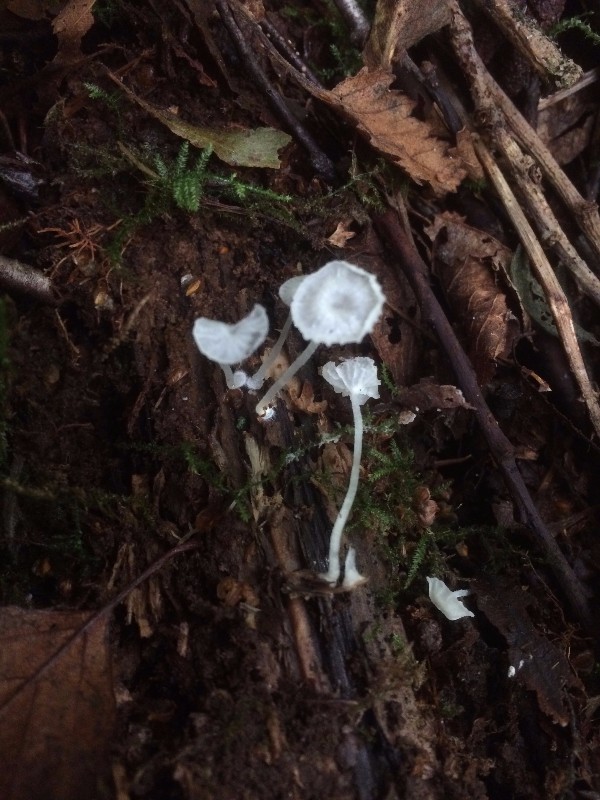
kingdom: Fungi
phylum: Basidiomycota
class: Agaricomycetes
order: Agaricales
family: Tricholomataceae
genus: Delicatula
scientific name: Delicatula integrella
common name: slørhuesvamp
